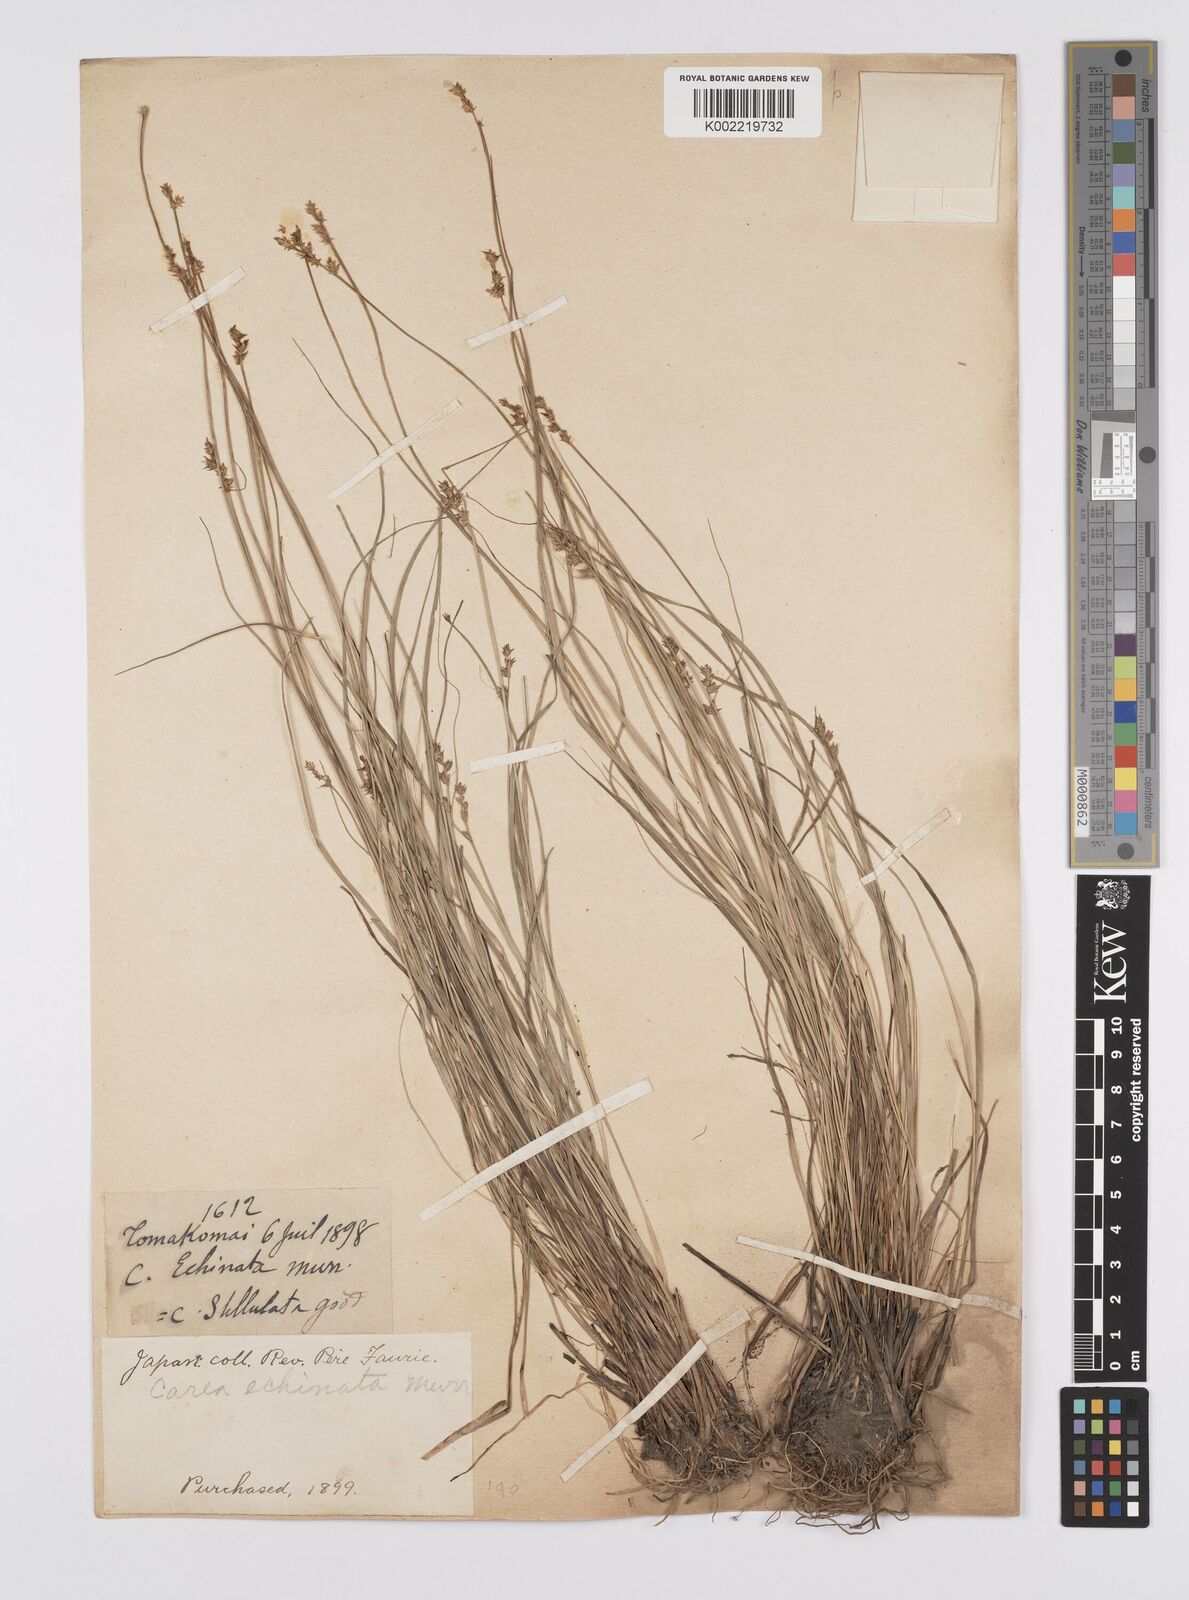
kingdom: Plantae
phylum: Tracheophyta
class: Liliopsida
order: Poales
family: Cyperaceae
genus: Carex
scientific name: Carex echinata
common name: Star sedge
